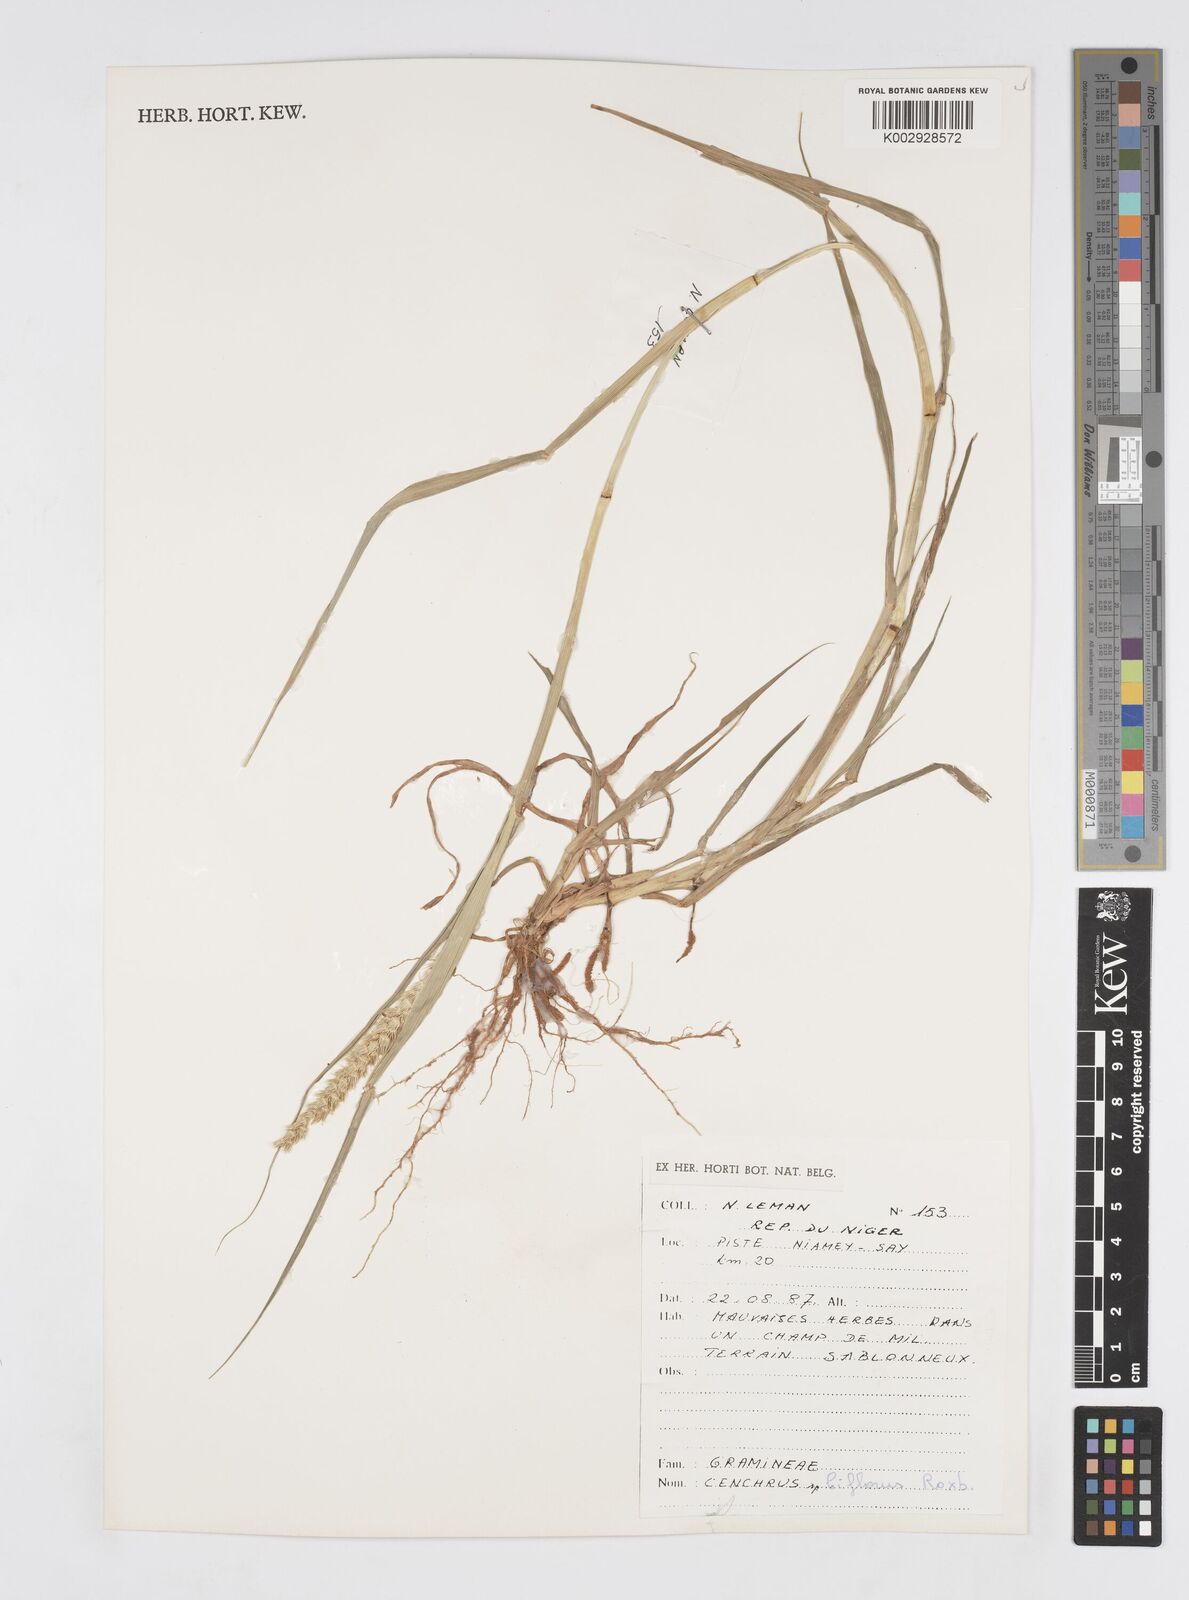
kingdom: Plantae
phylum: Tracheophyta
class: Liliopsida
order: Poales
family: Poaceae
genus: Cenchrus
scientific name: Cenchrus biflorus
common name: Indian sandbur
